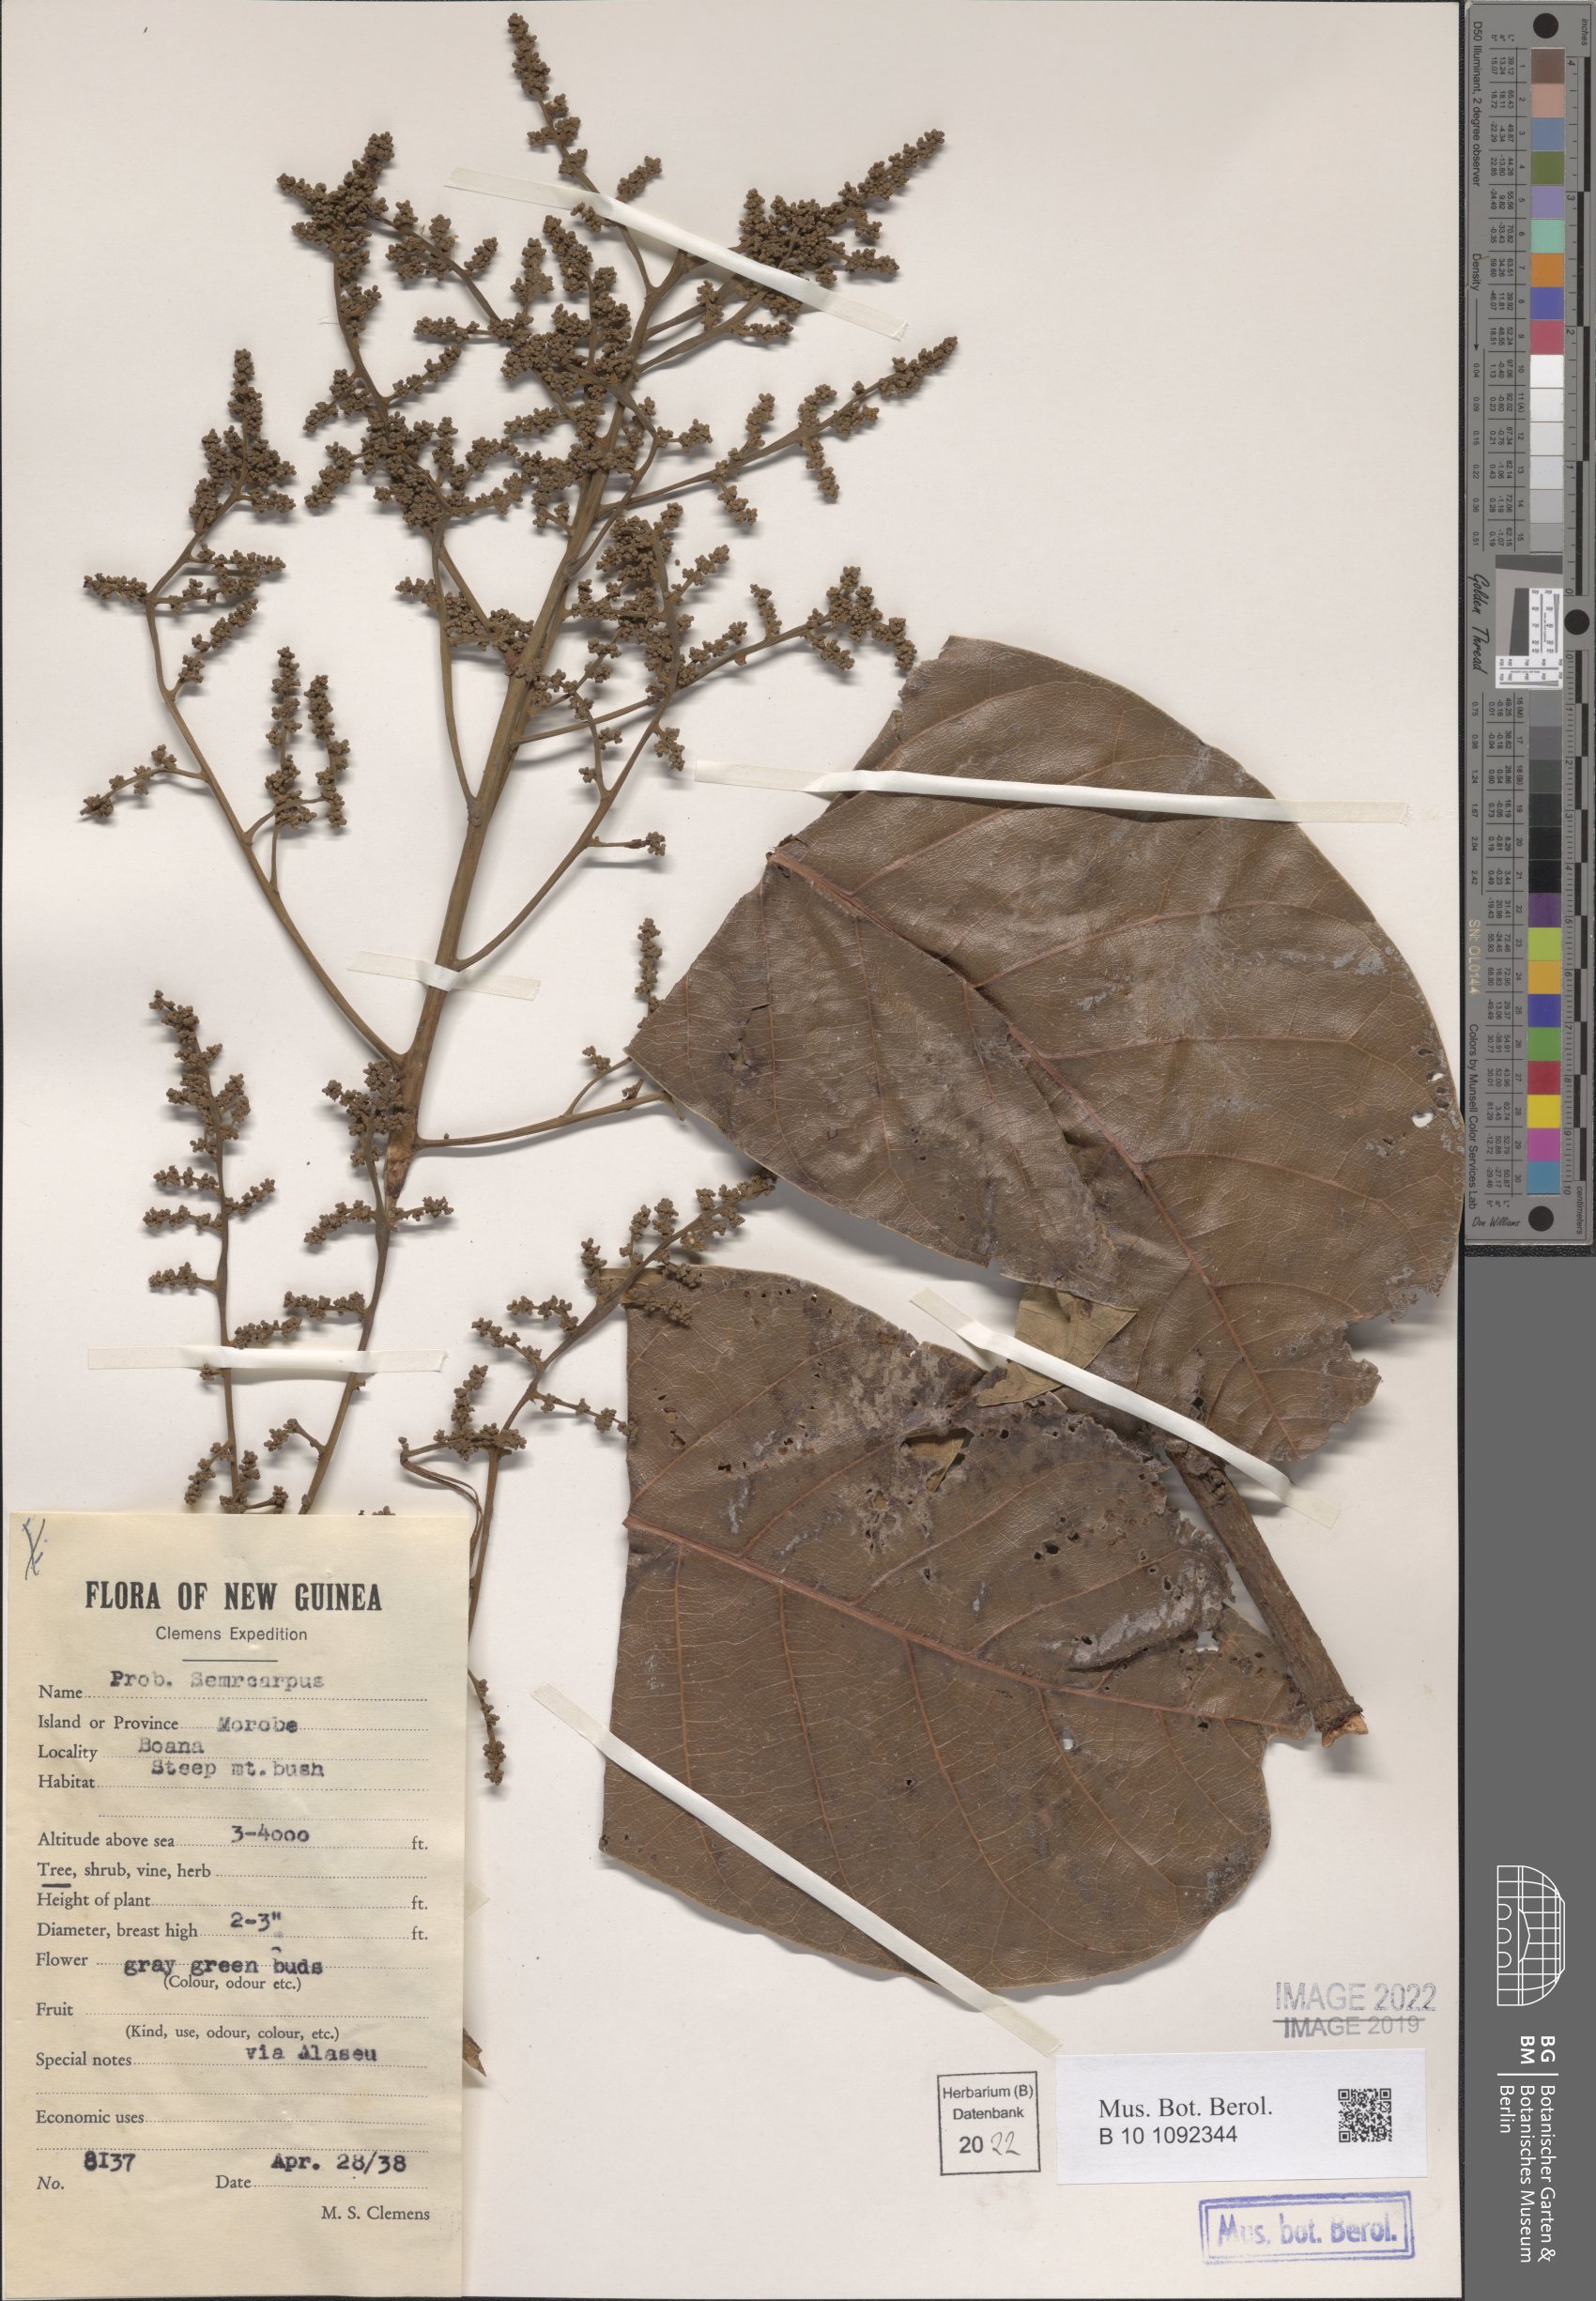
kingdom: Plantae
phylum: Tracheophyta
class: Magnoliopsida
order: Sapindales
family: Anacardiaceae
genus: Semecarpus
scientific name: Semecarpus
